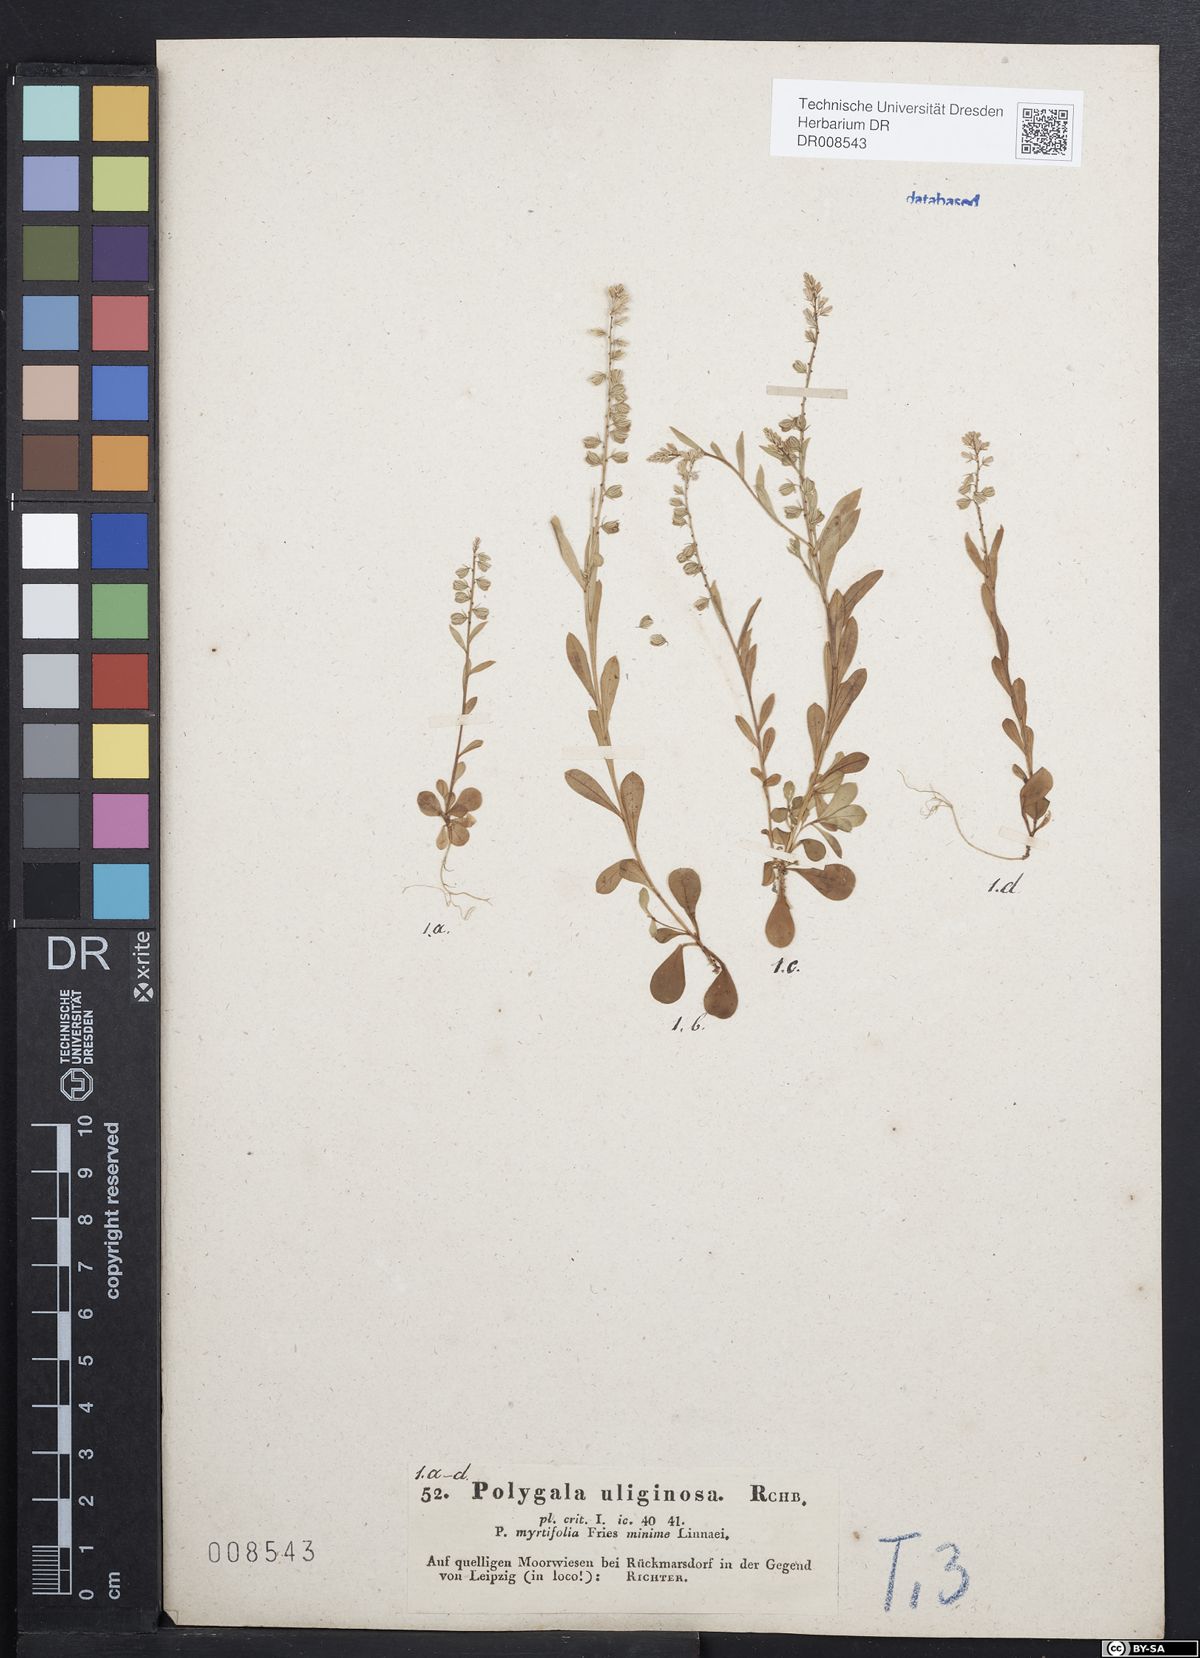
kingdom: Plantae
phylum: Tracheophyta
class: Magnoliopsida
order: Fabales
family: Polygalaceae
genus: Polygala
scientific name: Polygala amarella
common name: Dwarf milkwort
